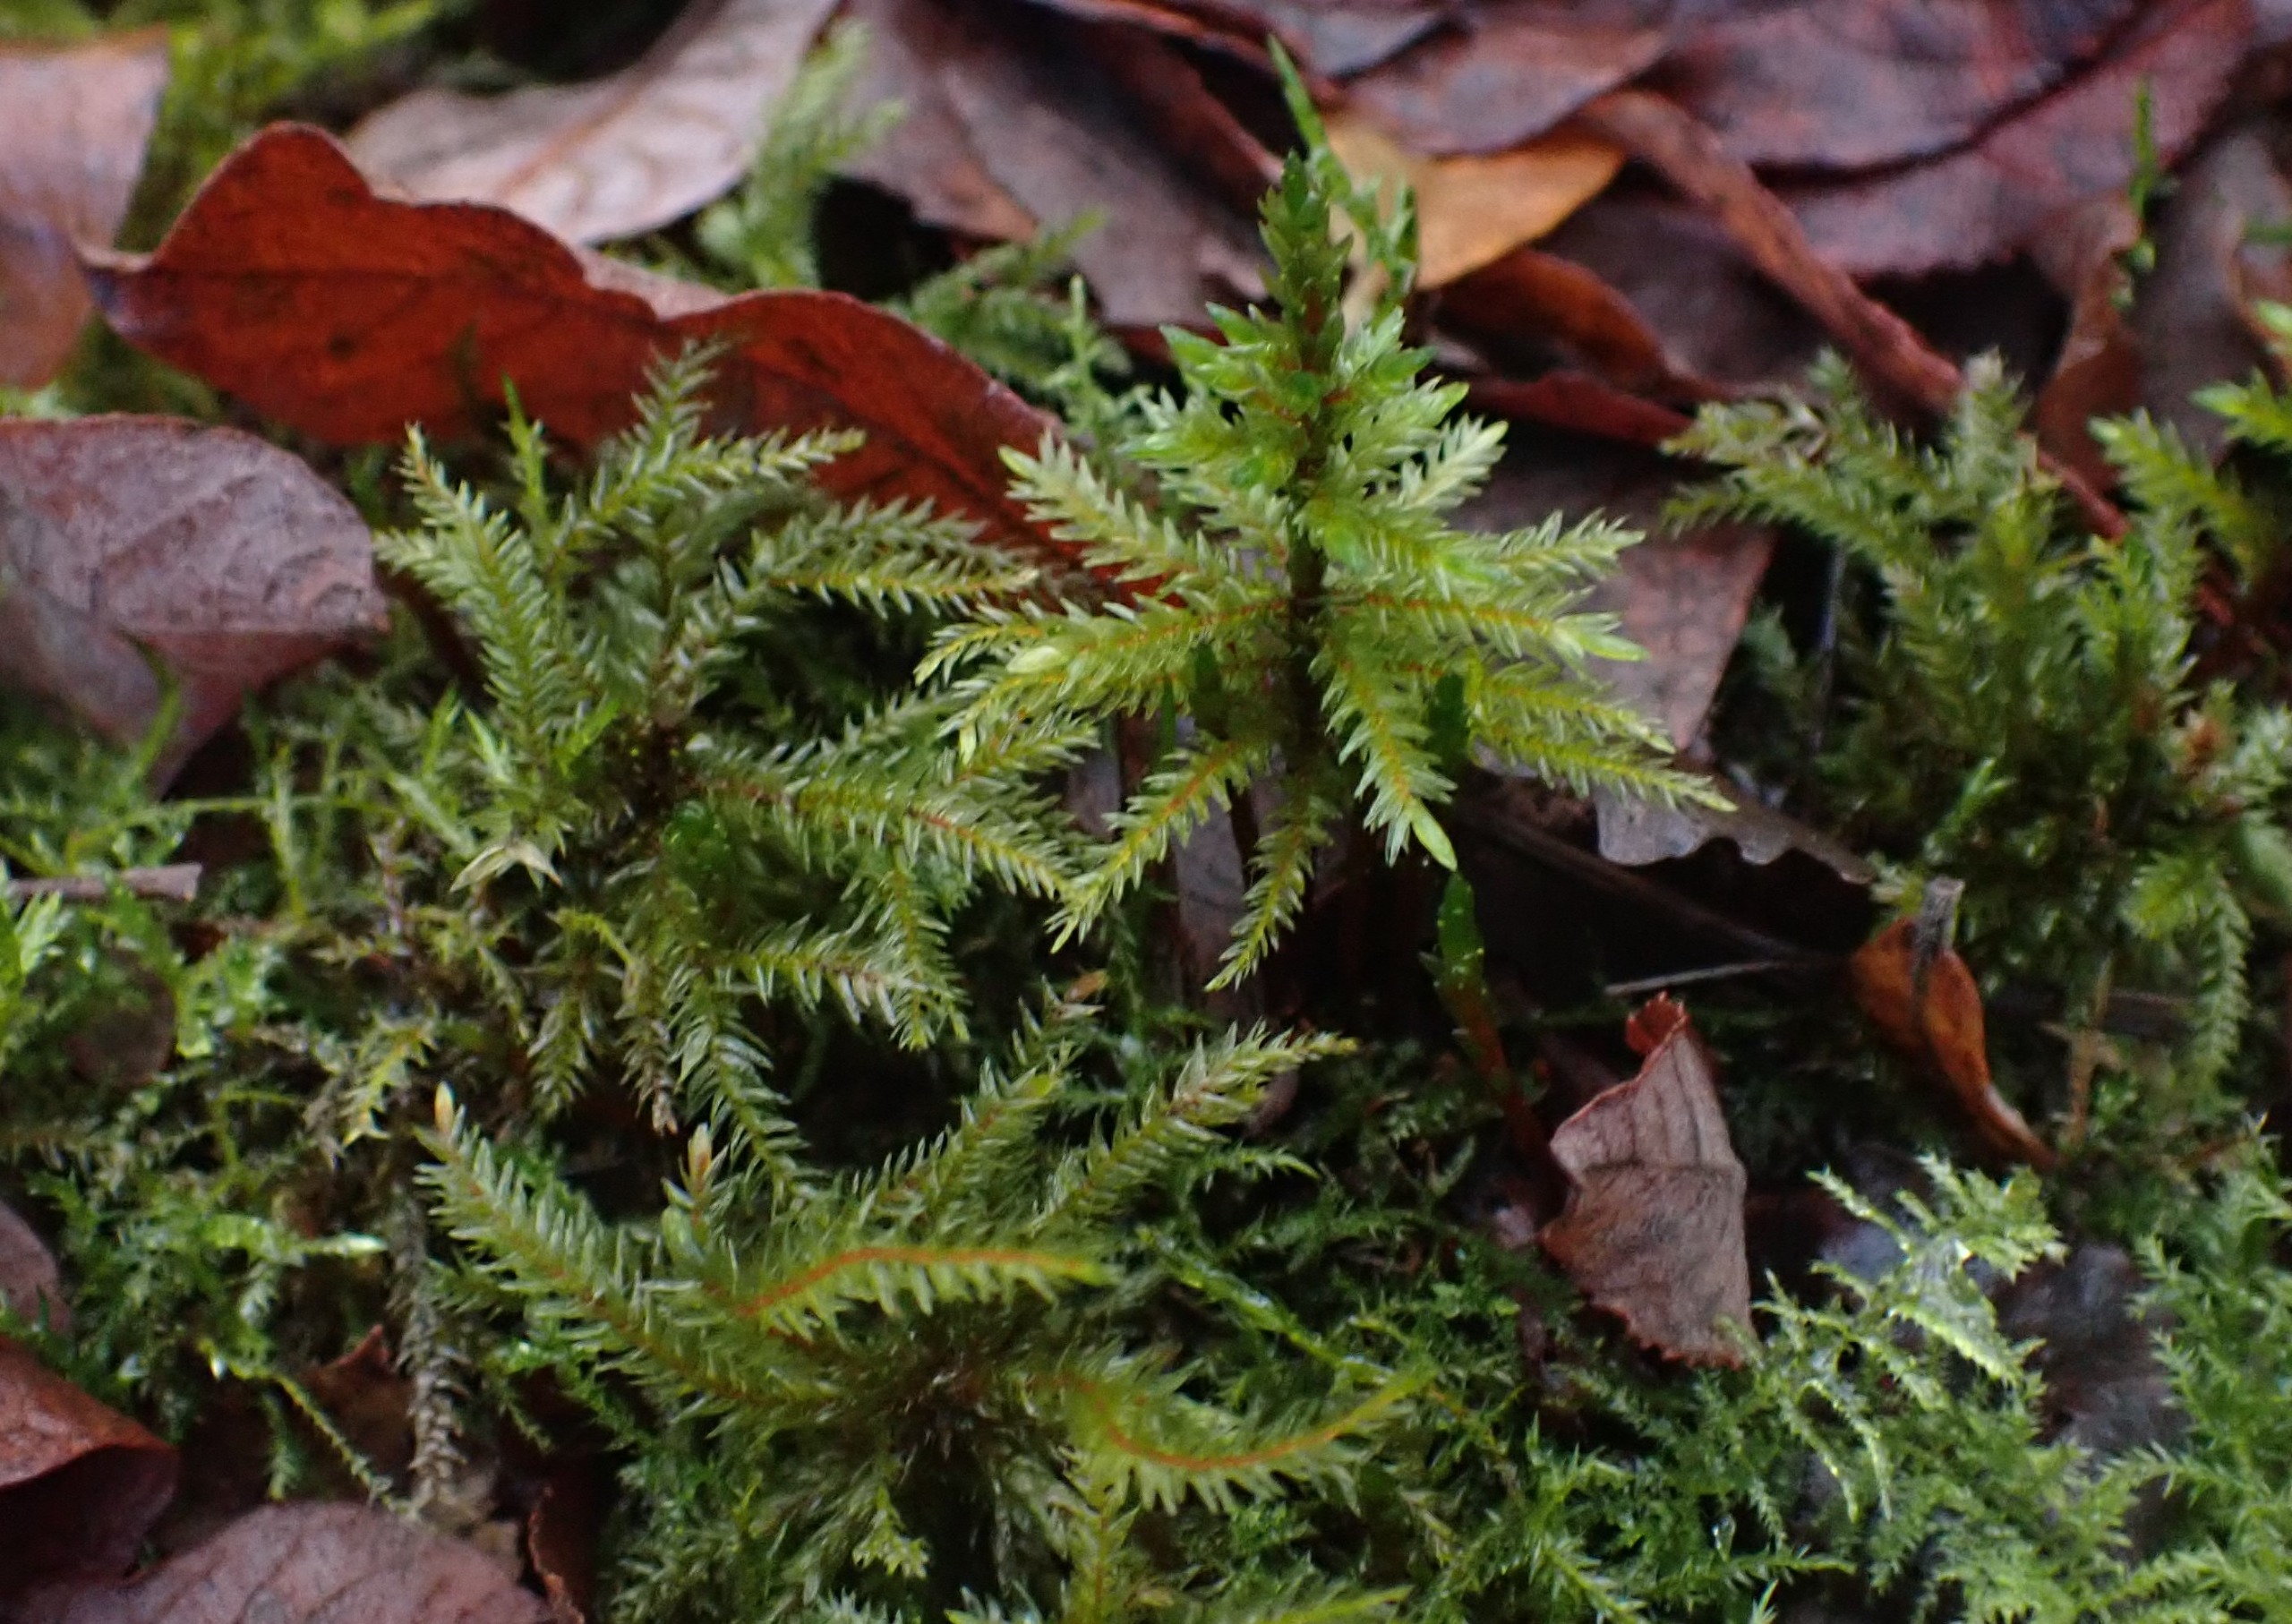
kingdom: Plantae
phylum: Bryophyta
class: Bryopsida
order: Hypnales
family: Climaciaceae
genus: Climacium
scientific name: Climacium dendroides
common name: Stor engkost
